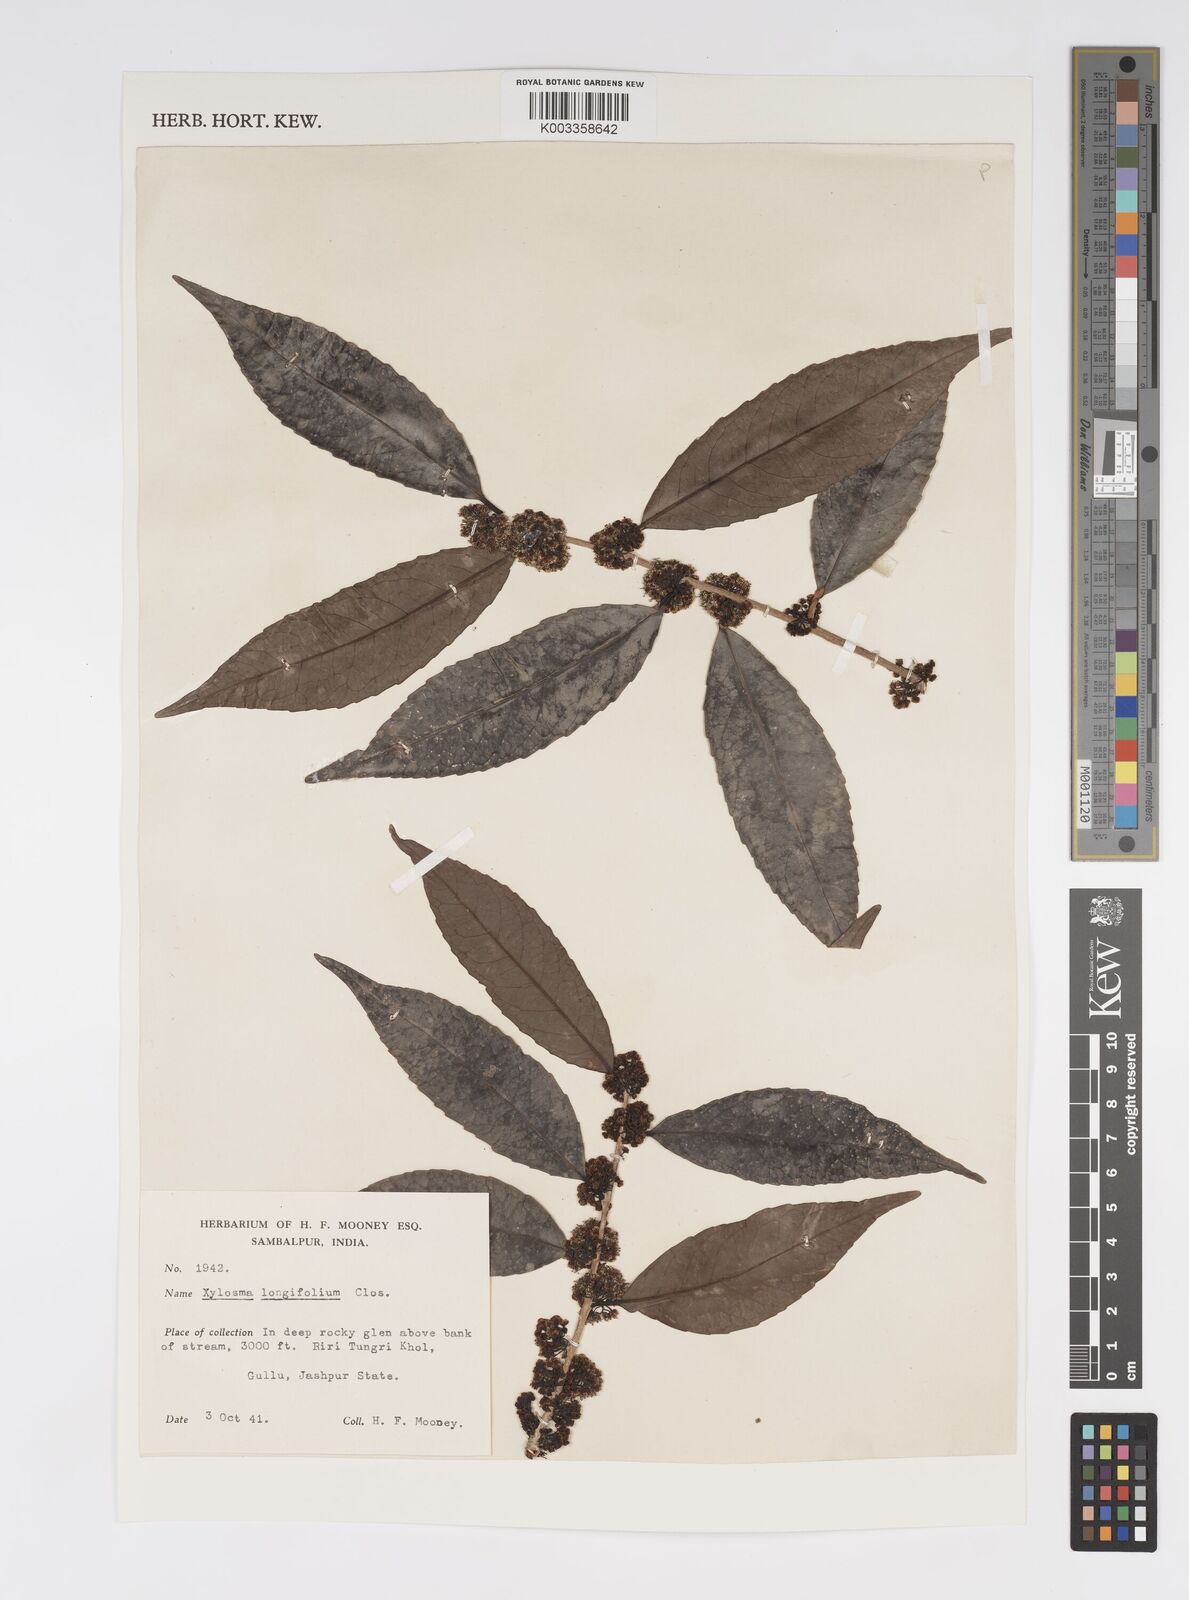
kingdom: Plantae
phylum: Tracheophyta
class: Magnoliopsida
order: Malpighiales
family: Salicaceae
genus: Xylosma
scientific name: Xylosma longifolia
